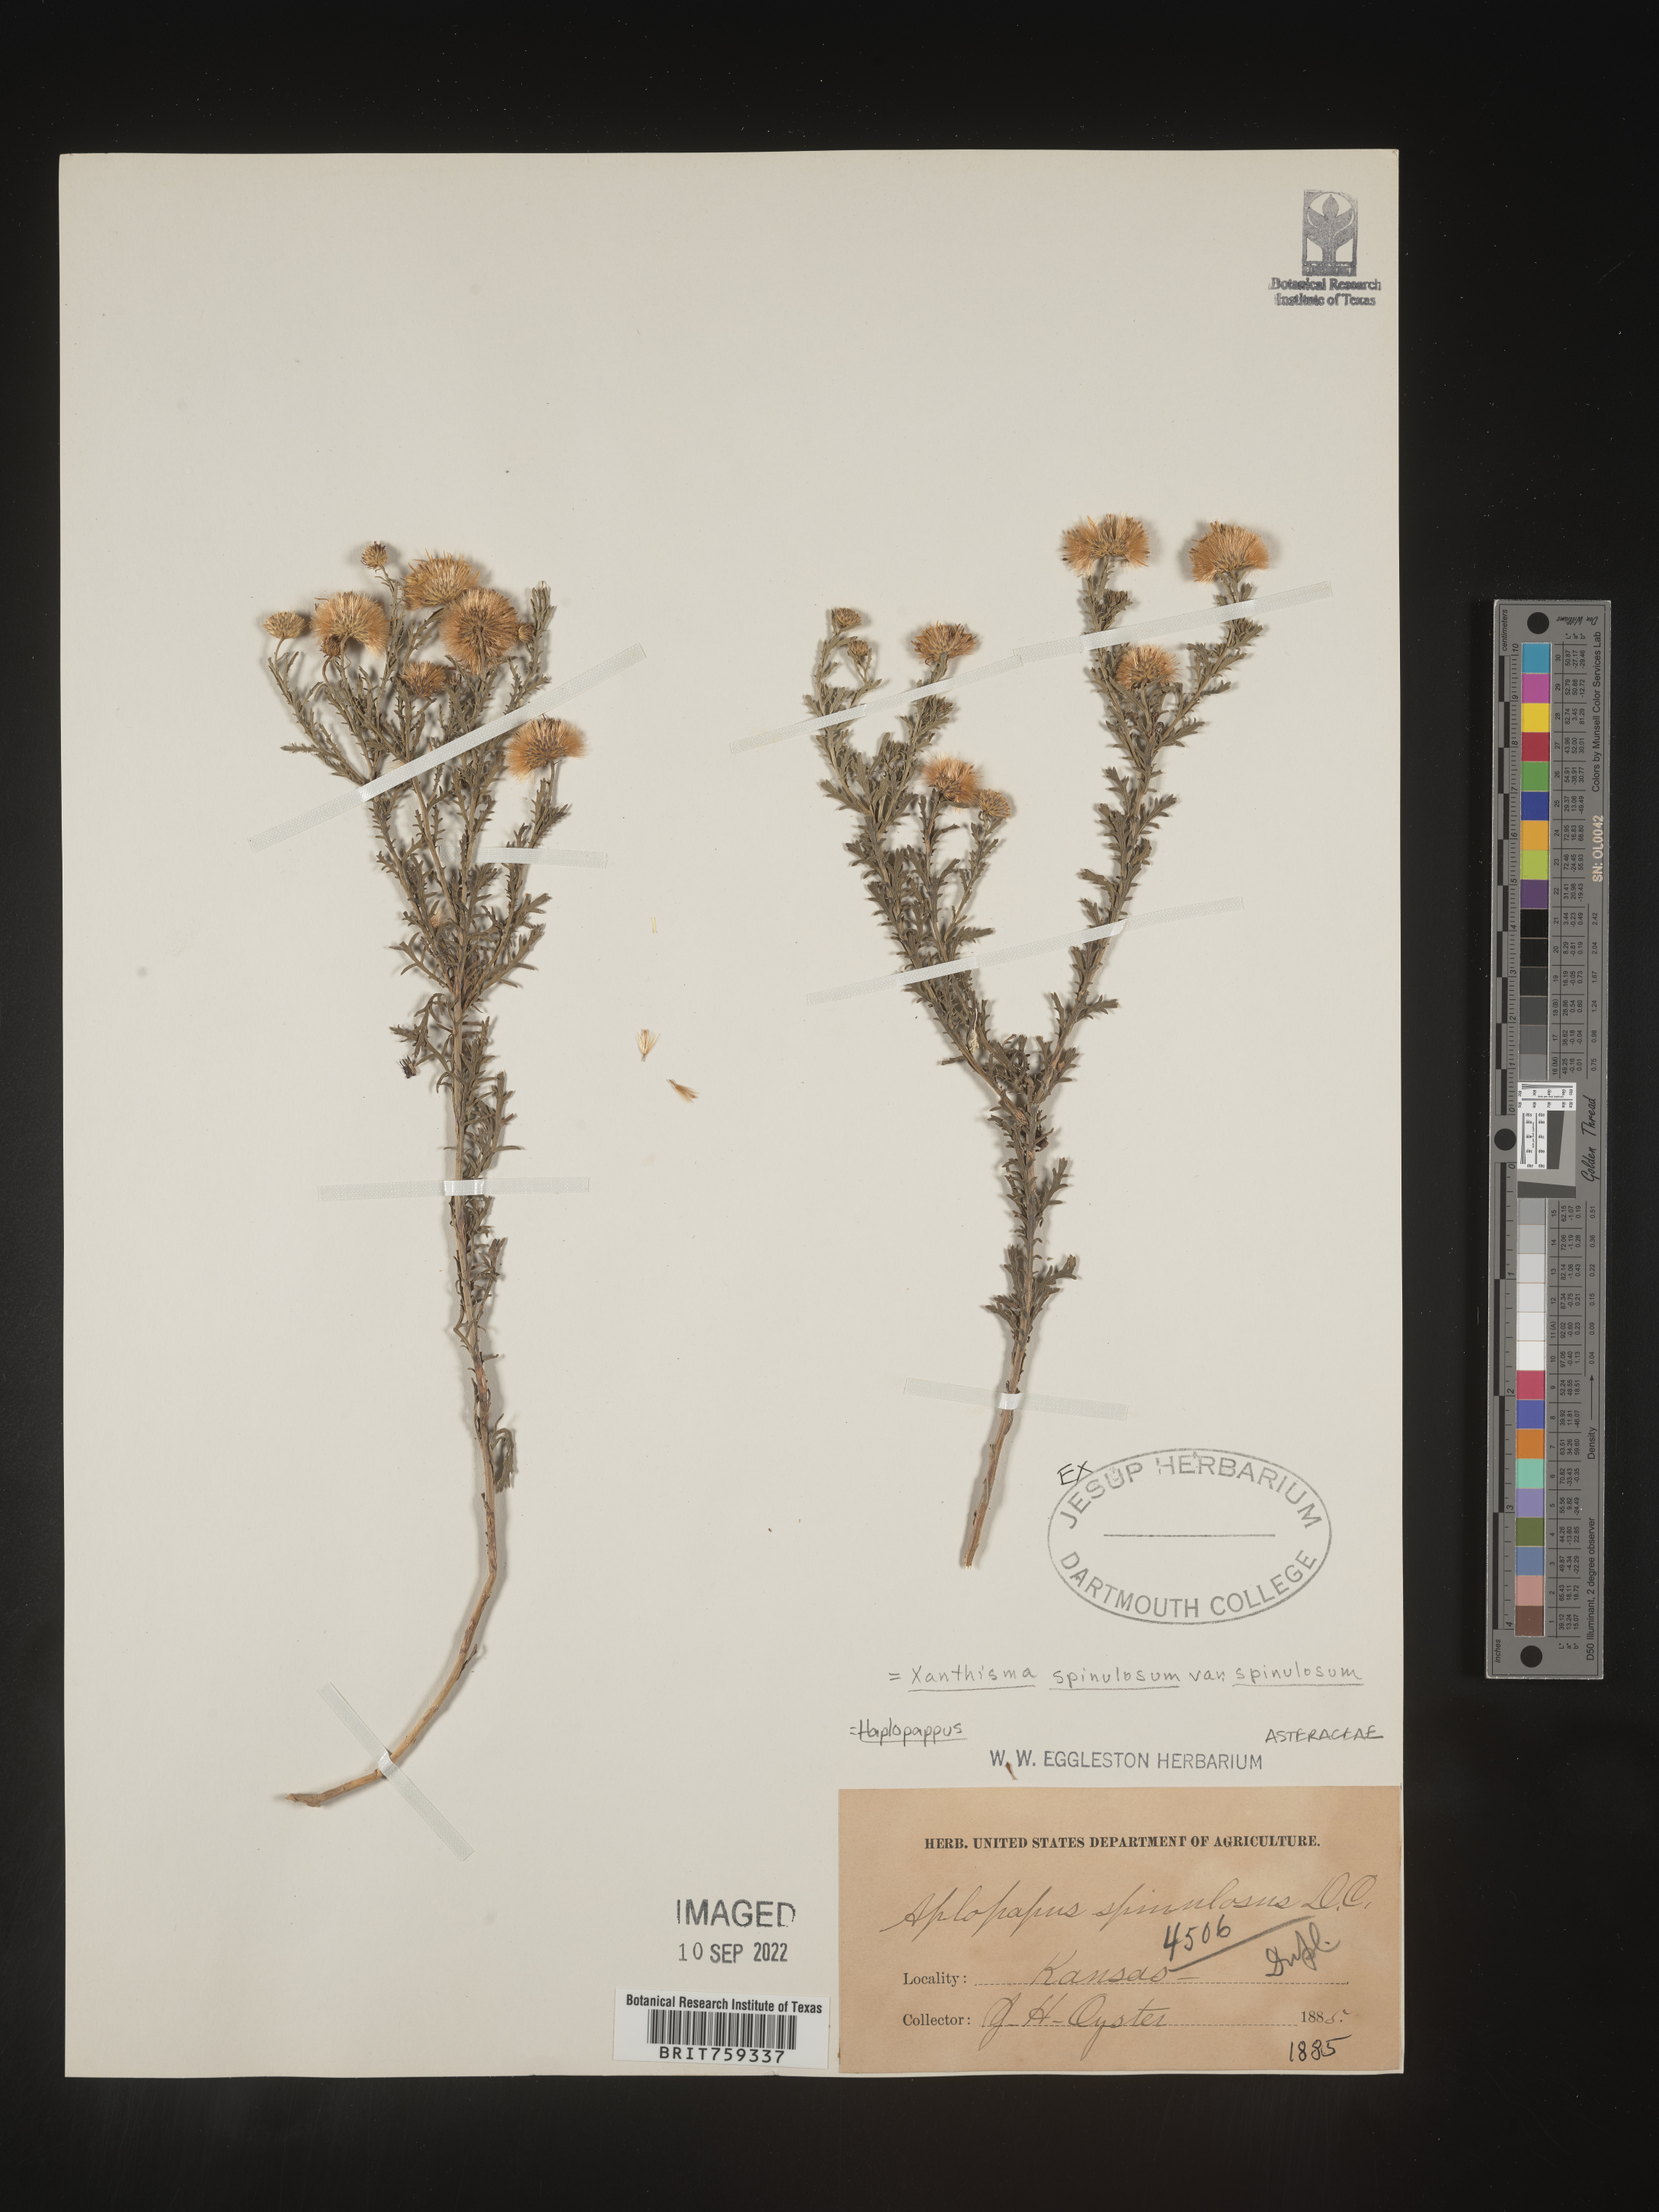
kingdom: Plantae
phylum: Tracheophyta
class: Magnoliopsida
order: Asterales
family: Asteraceae
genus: Xanthisma
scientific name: Xanthisma
